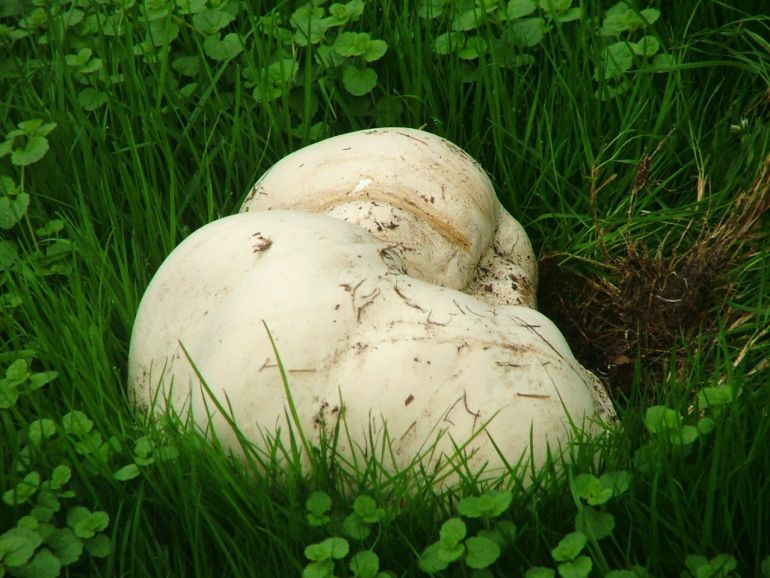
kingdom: Fungi
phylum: Basidiomycota
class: Agaricomycetes
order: Agaricales
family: Lycoperdaceae
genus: Calvatia
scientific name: Calvatia gigantea
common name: kæmpestøvbold
